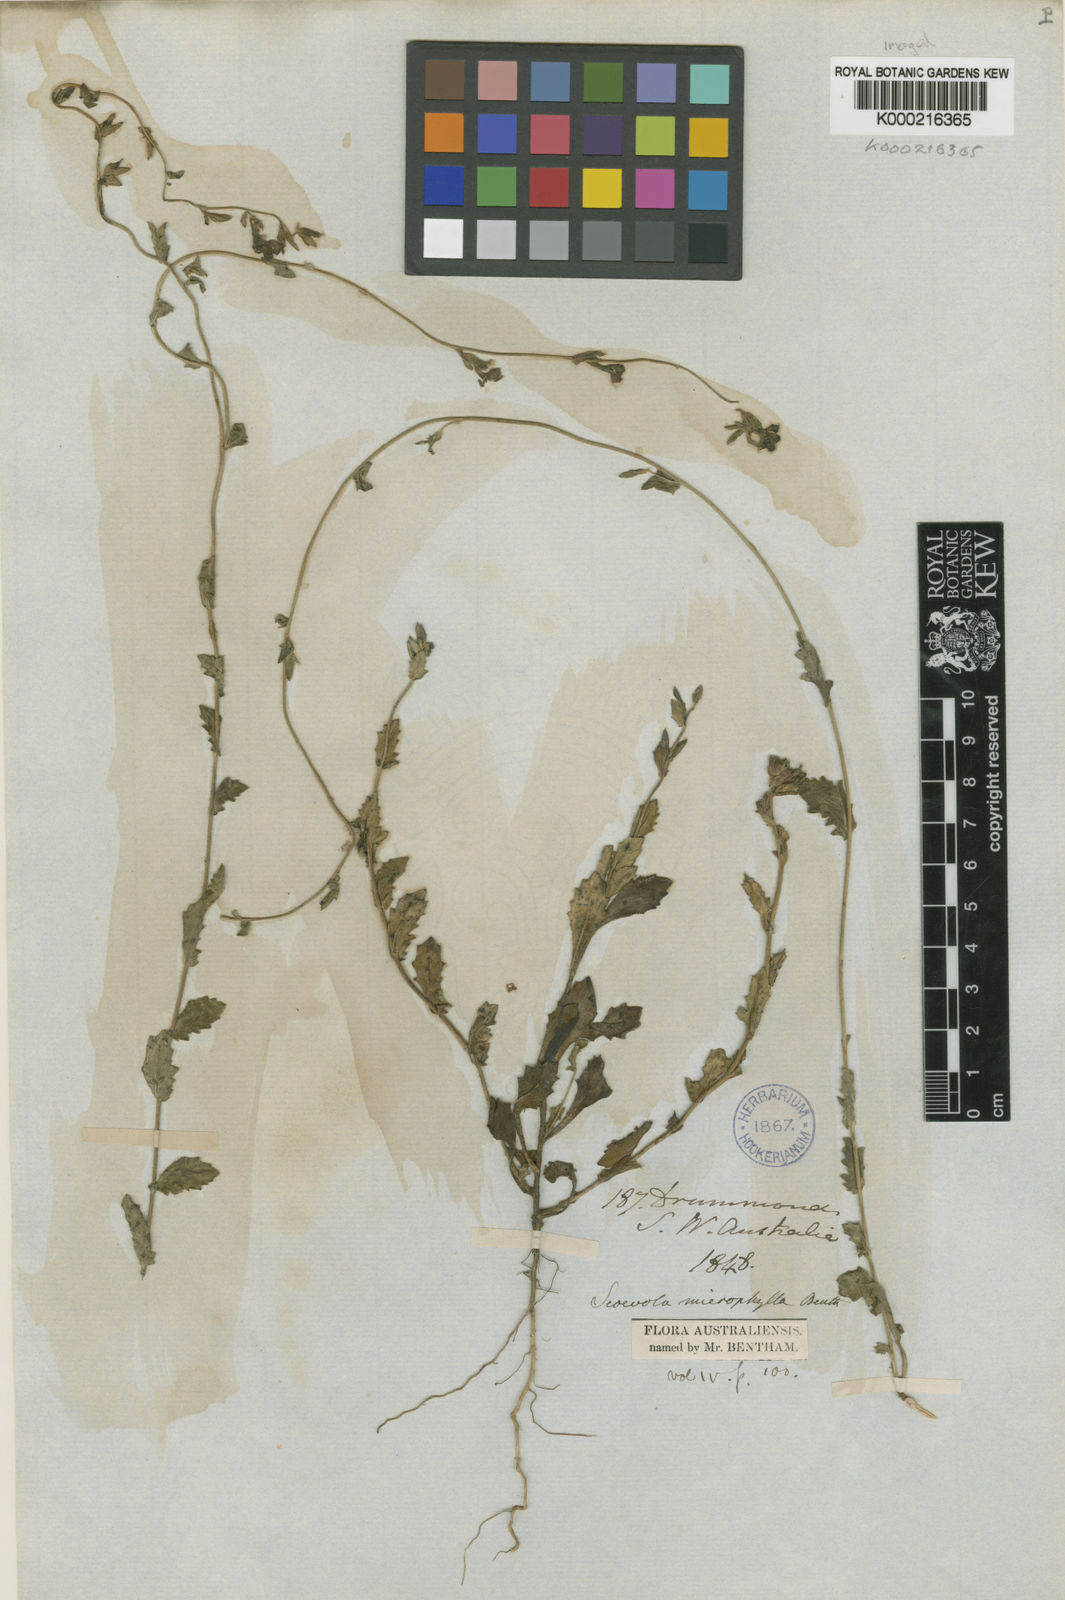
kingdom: Plantae
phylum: Tracheophyta
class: Magnoliopsida
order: Asterales
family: Goodeniaceae
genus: Scaevola
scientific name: Scaevola microphylla
